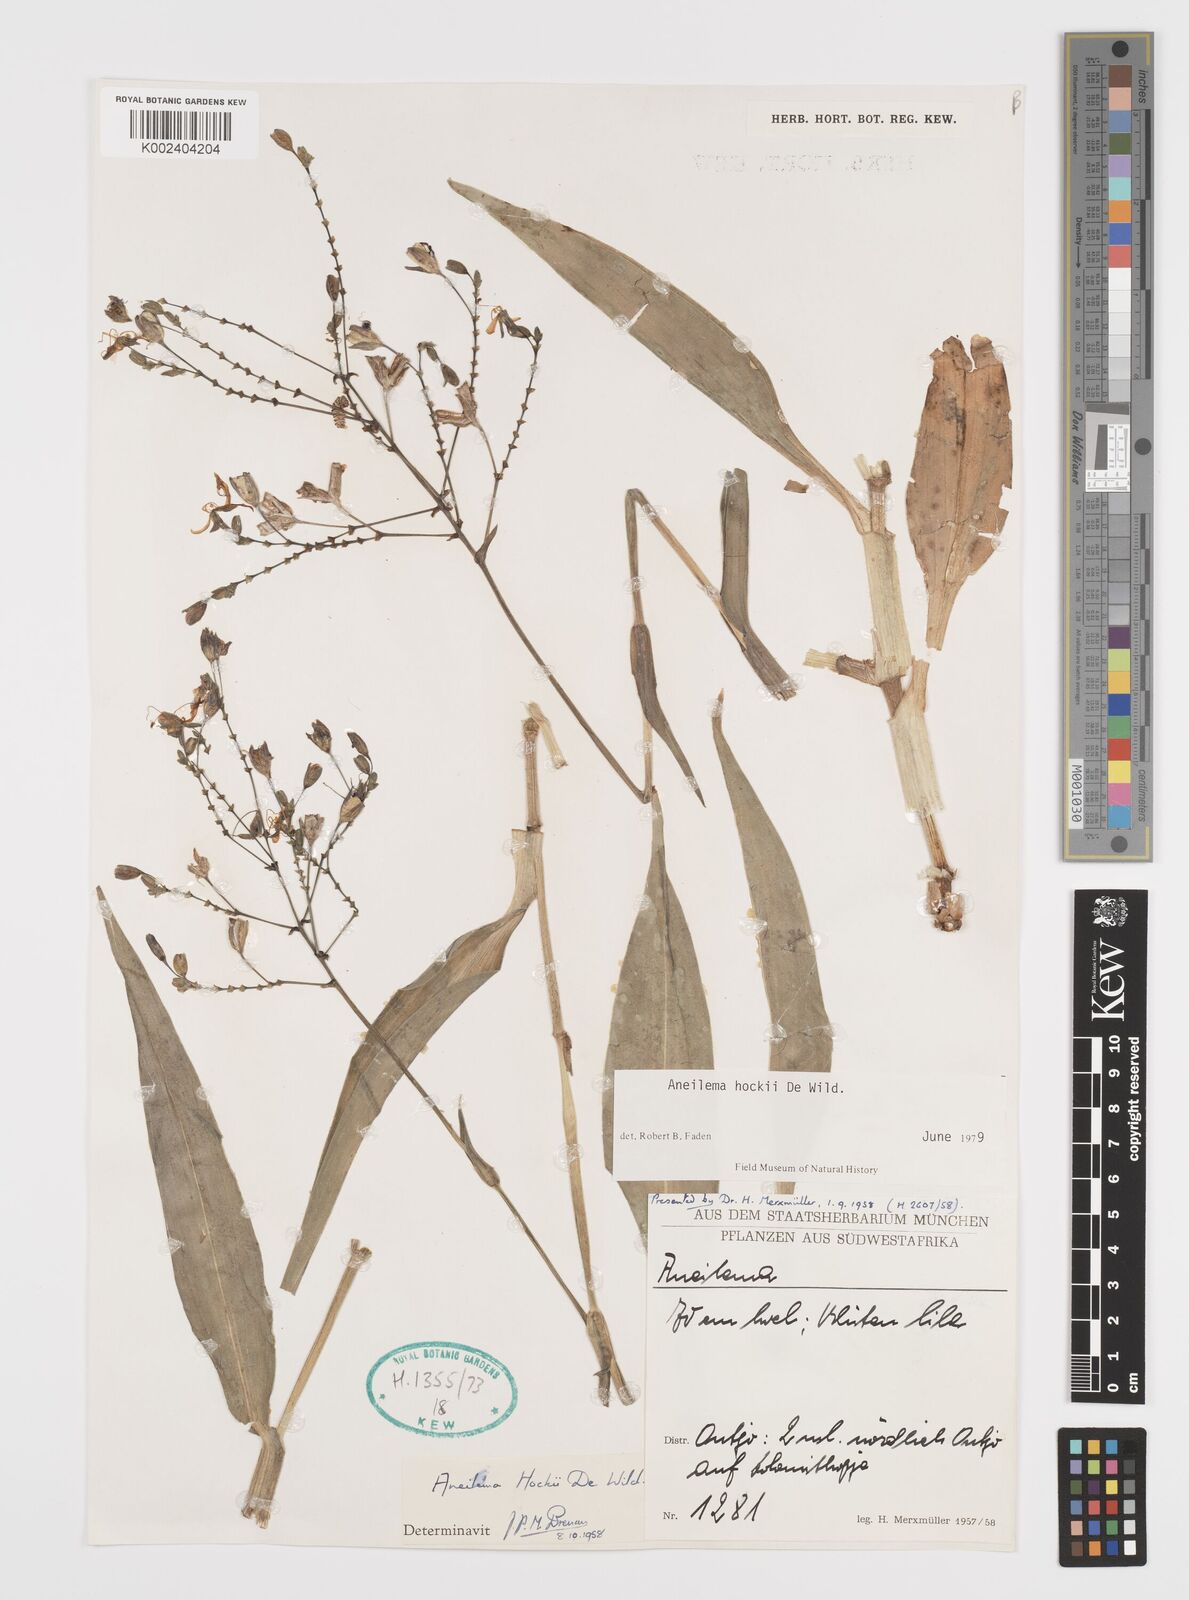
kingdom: Plantae
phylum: Tracheophyta
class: Liliopsida
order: Commelinales
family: Commelinaceae
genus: Aneilema
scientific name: Aneilema hockii
